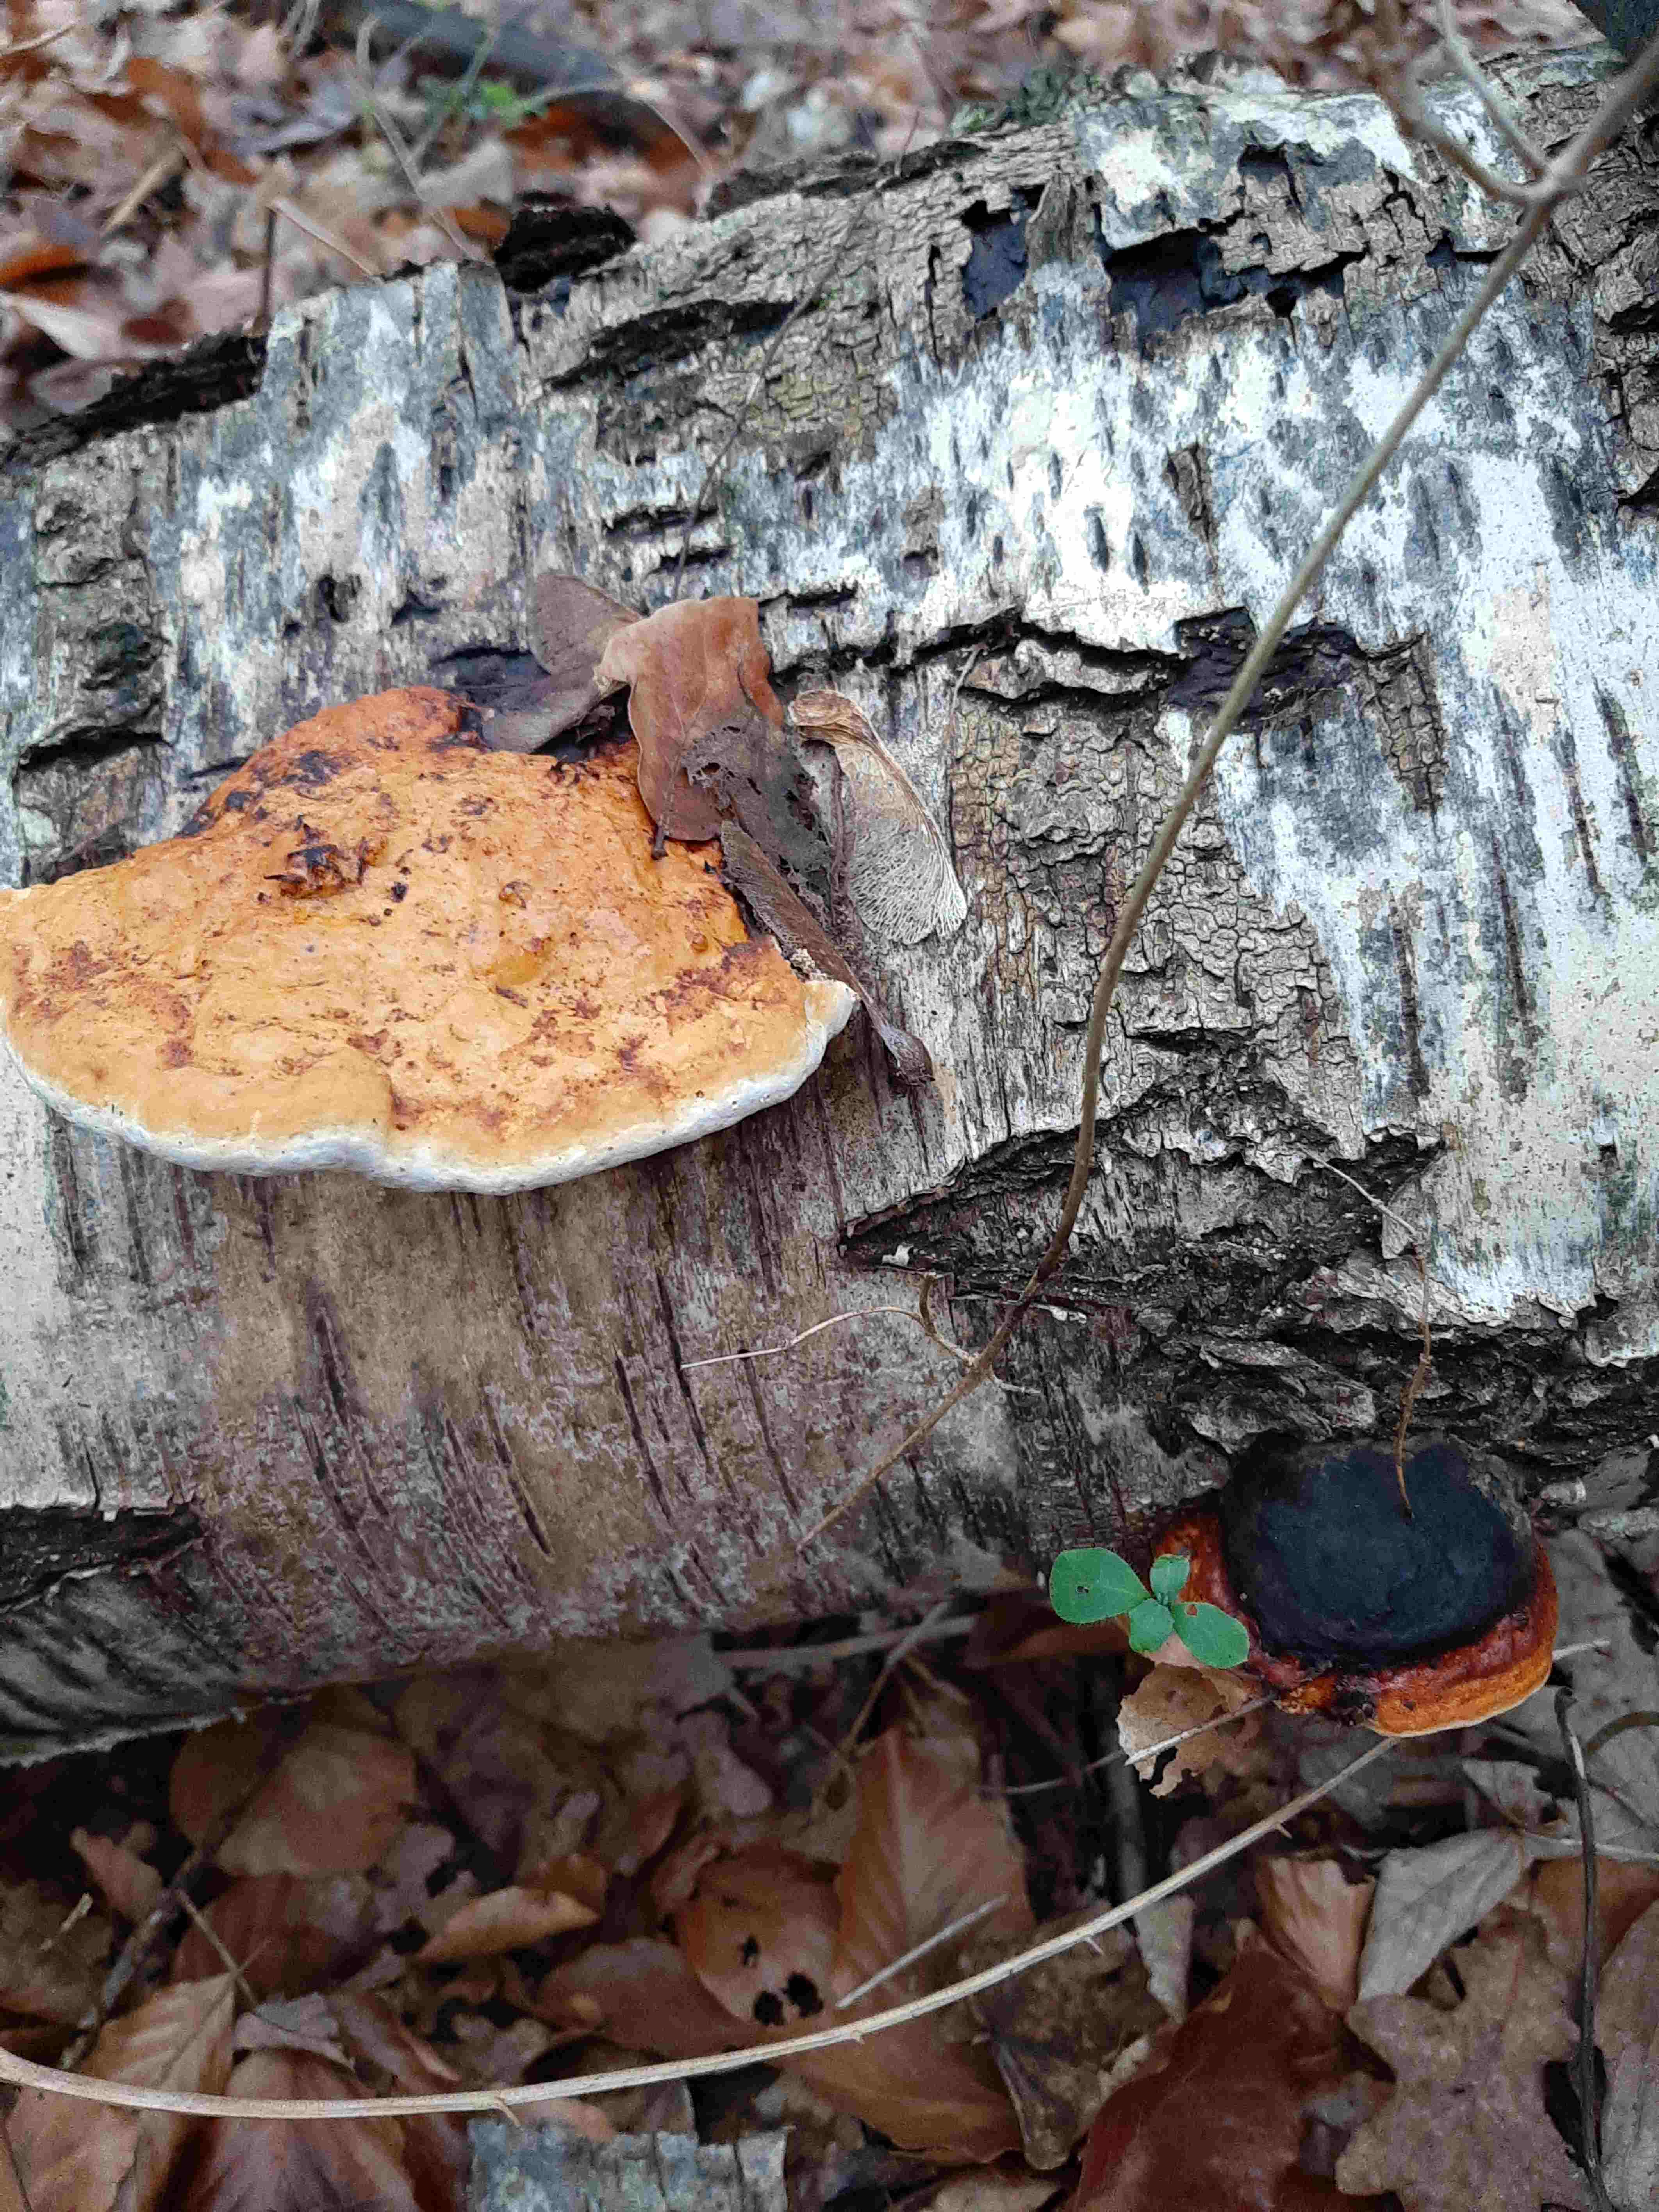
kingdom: Fungi
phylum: Basidiomycota
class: Agaricomycetes
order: Polyporales
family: Fomitopsidaceae
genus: Fomitopsis
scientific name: Fomitopsis pinicola
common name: randbæltet hovporesvamp
